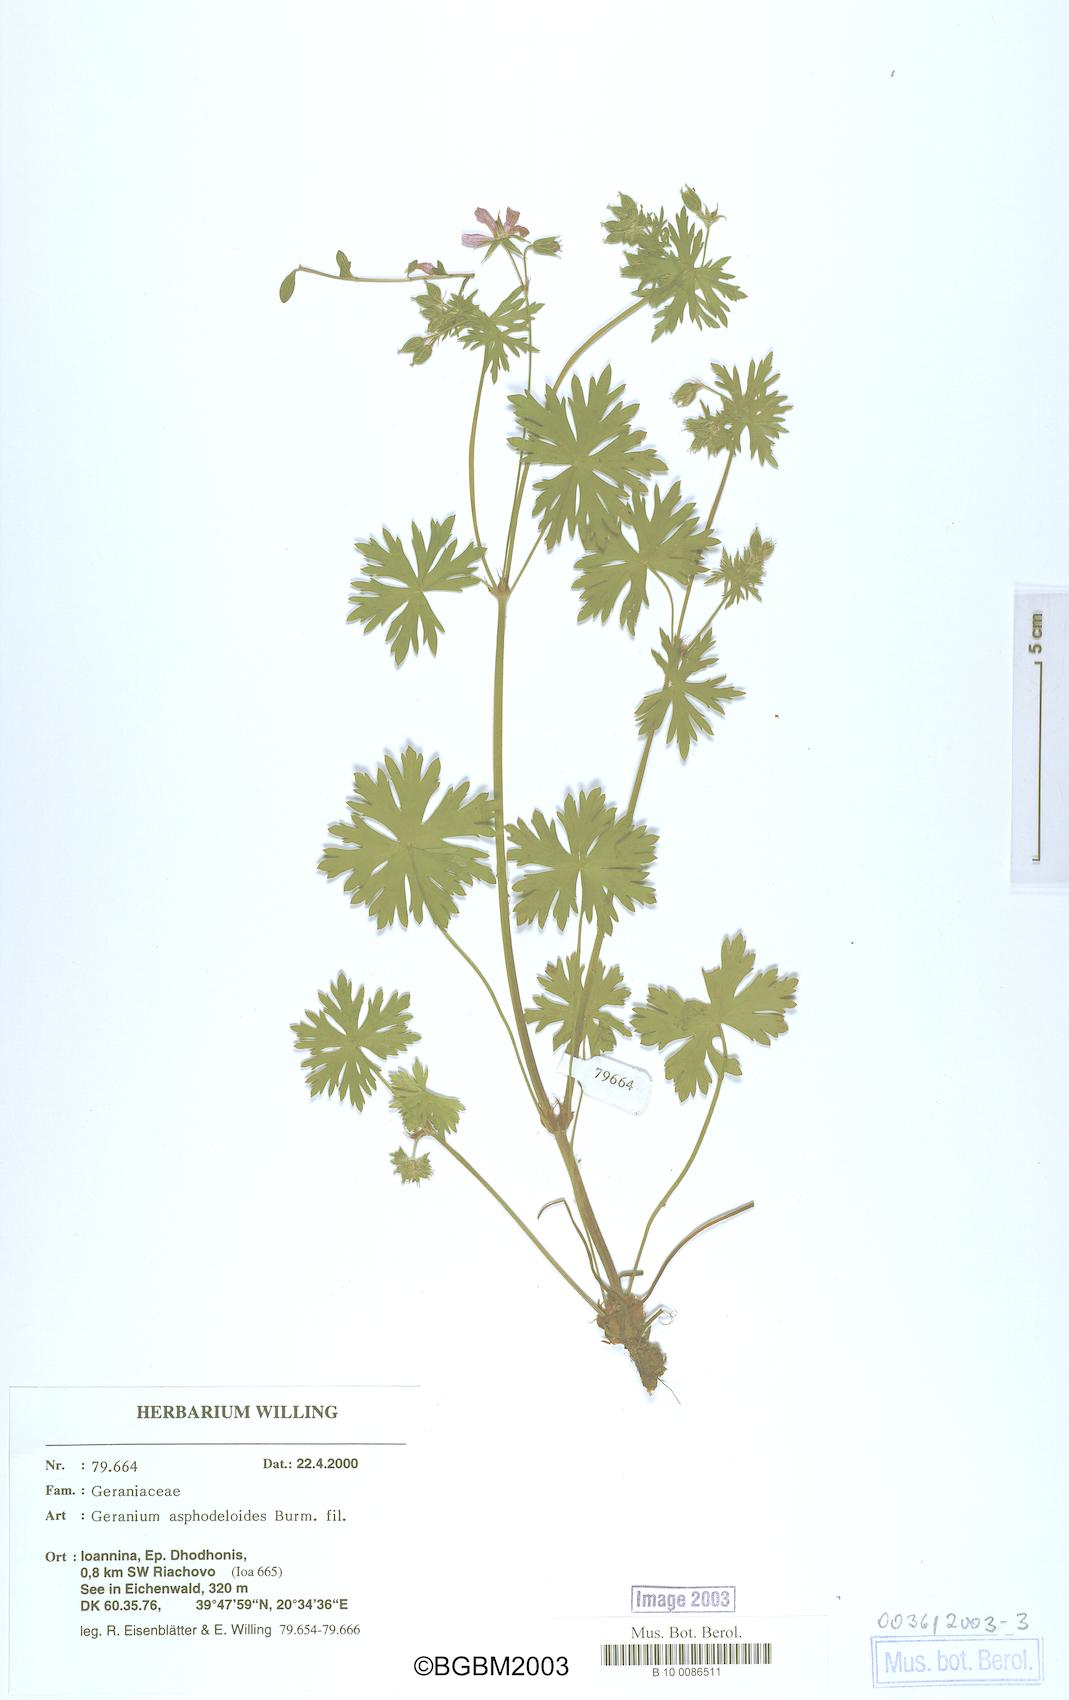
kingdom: Plantae
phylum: Tracheophyta
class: Magnoliopsida
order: Geraniales
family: Geraniaceae
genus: Geranium
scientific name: Geranium asphodeloides
